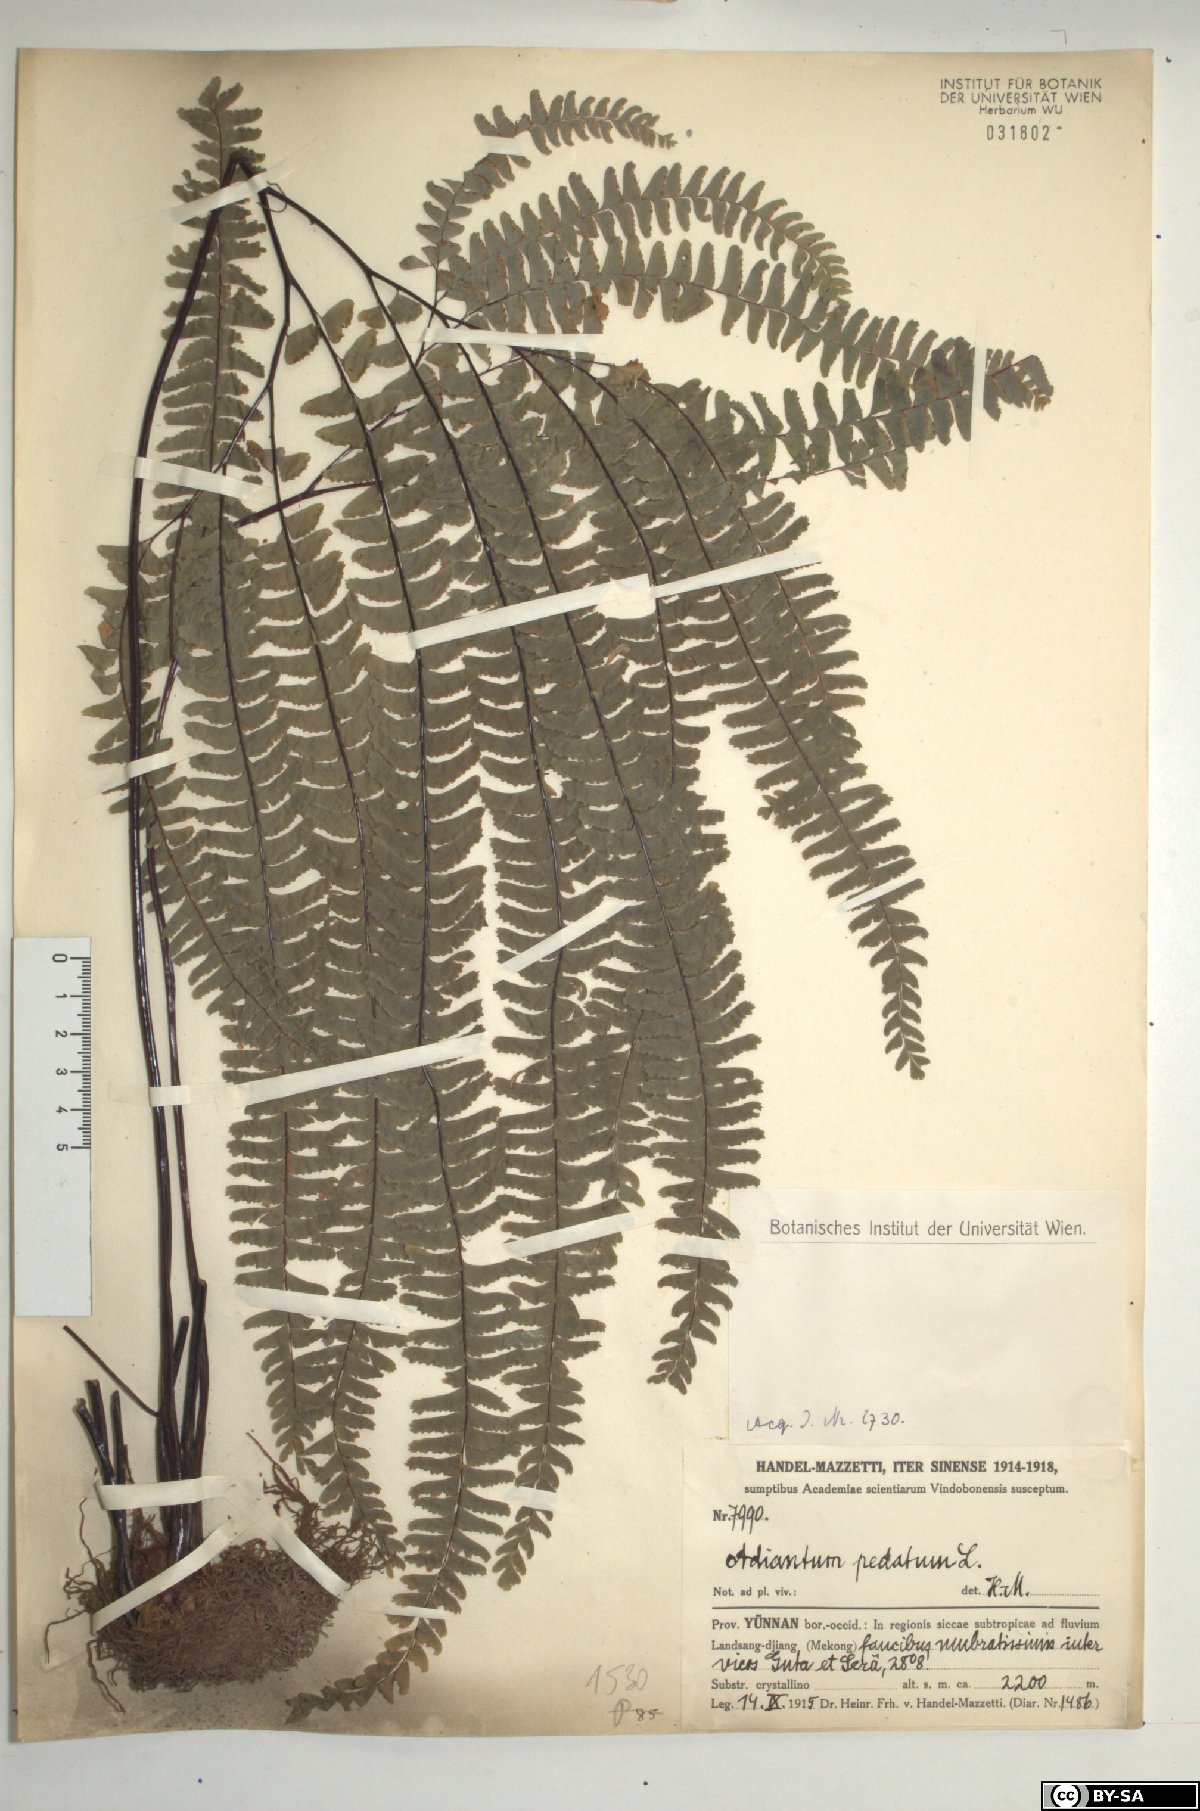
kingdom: Plantae
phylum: Tracheophyta
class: Polypodiopsida
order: Polypodiales
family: Pteridaceae
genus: Adiantum
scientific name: Adiantum pedatum
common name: Five-finger fern
